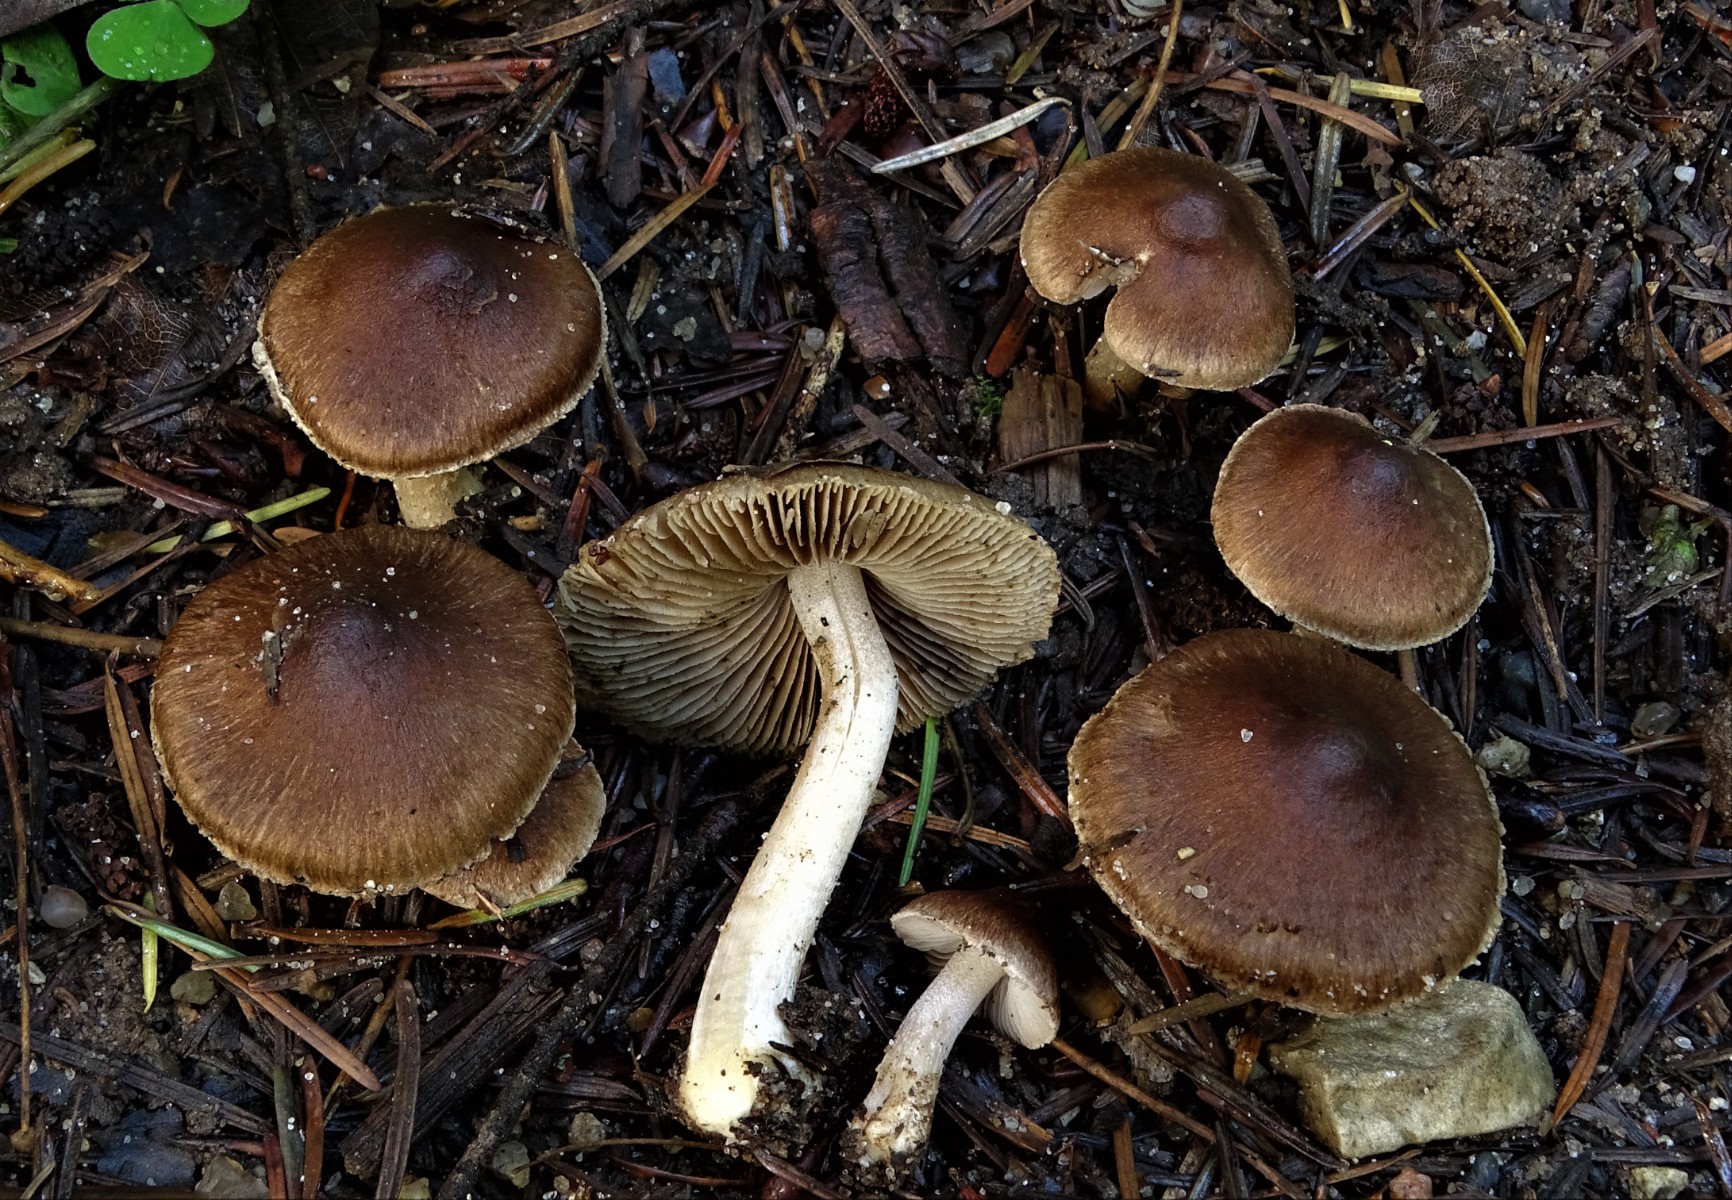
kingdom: Fungi
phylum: Basidiomycota
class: Agaricomycetes
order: Agaricales
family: Inocybaceae
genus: Inocybe
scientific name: Inocybe fuscidula
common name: brunfibret trævlhat
